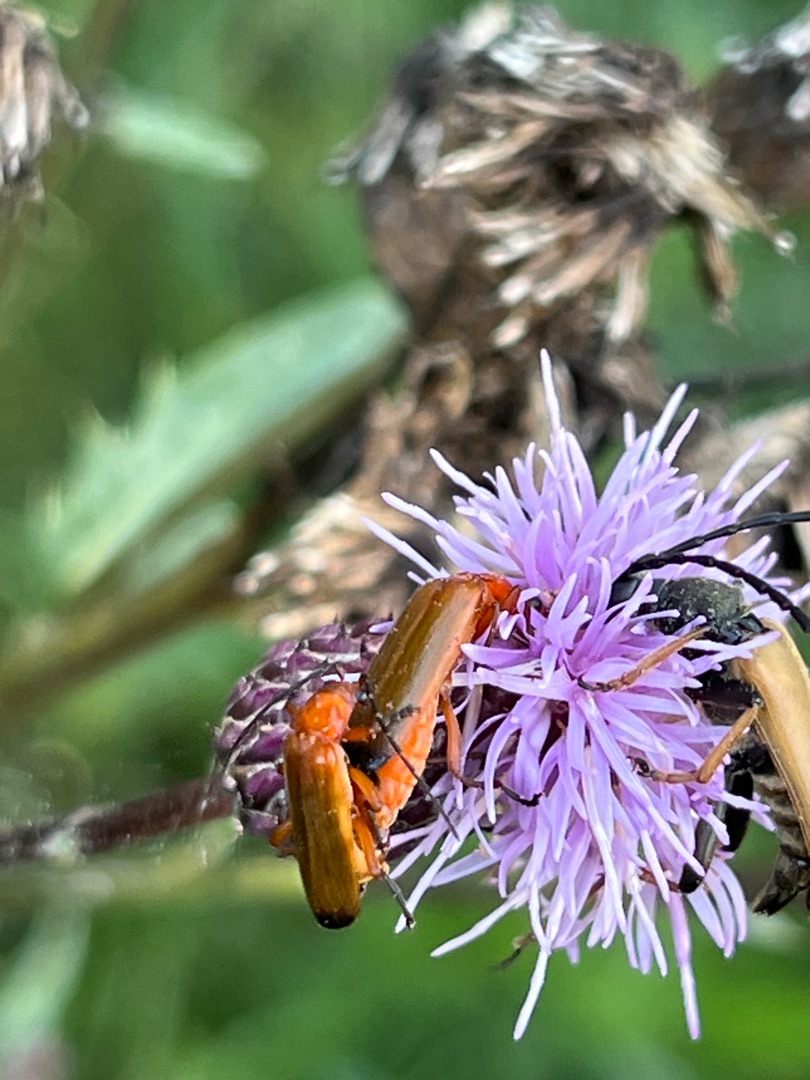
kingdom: Animalia
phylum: Arthropoda
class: Insecta
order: Coleoptera
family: Cantharidae
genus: Rhagonycha
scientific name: Rhagonycha fulva
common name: Præstebille
